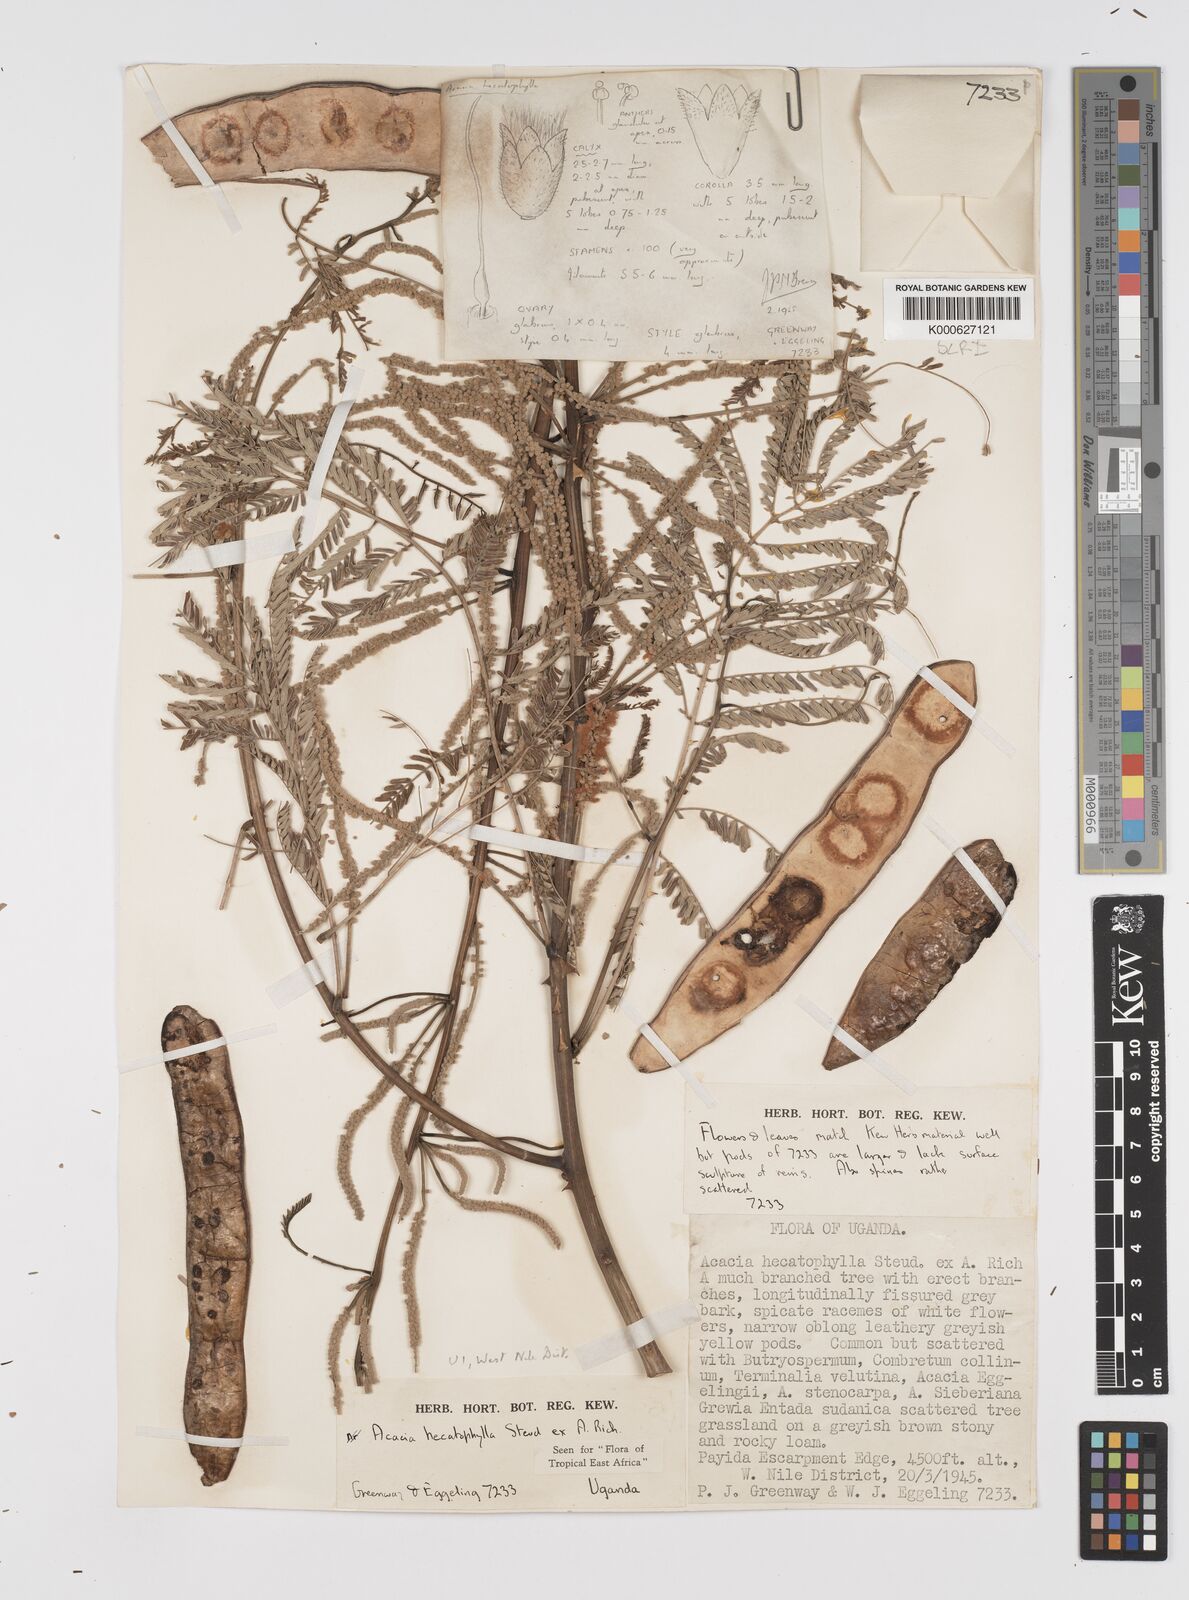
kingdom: Plantae
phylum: Tracheophyta
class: Magnoliopsida
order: Fabales
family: Fabaceae
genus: Senegalia
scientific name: Senegalia hecatophylla
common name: Long pod
